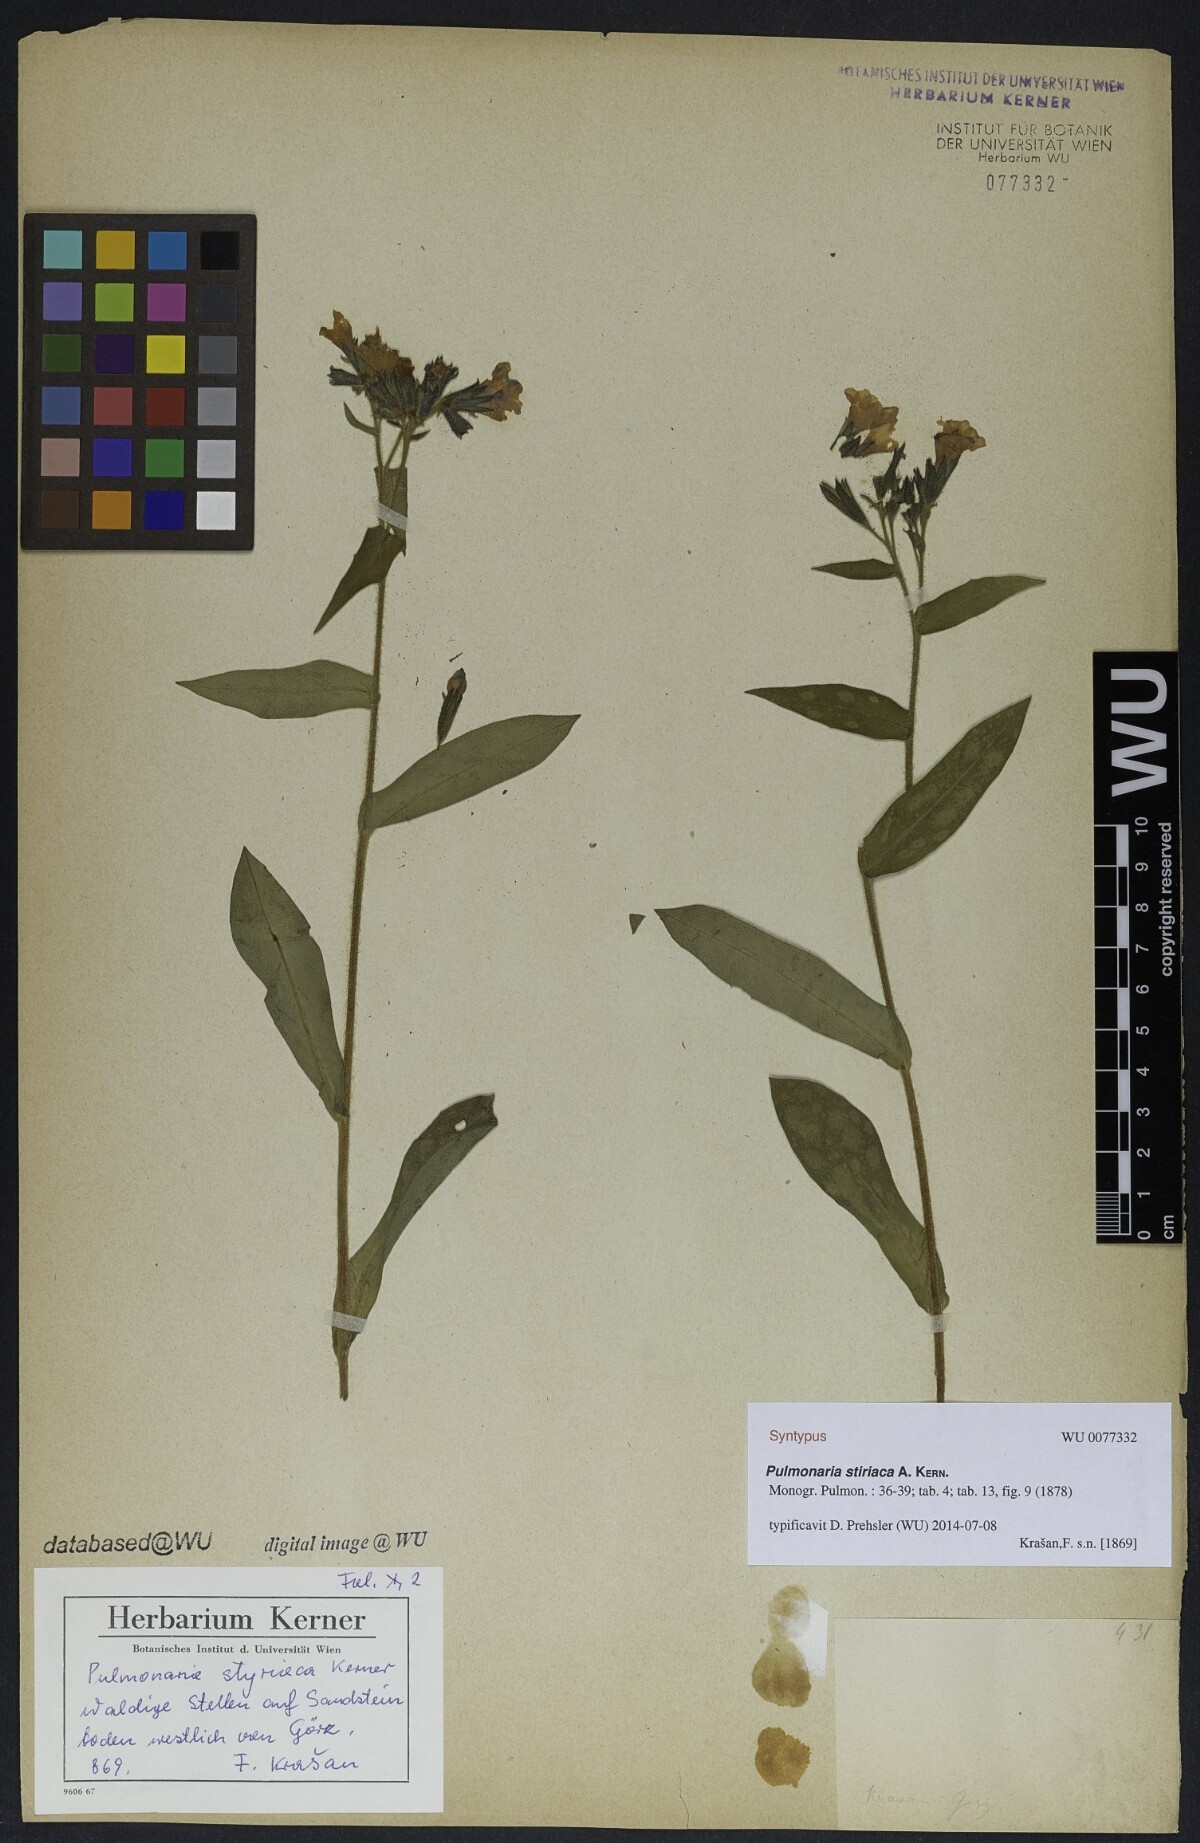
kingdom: Plantae
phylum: Tracheophyta
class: Magnoliopsida
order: Boraginales
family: Boraginaceae
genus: Pulmonaria
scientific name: Pulmonaria stiriaca
